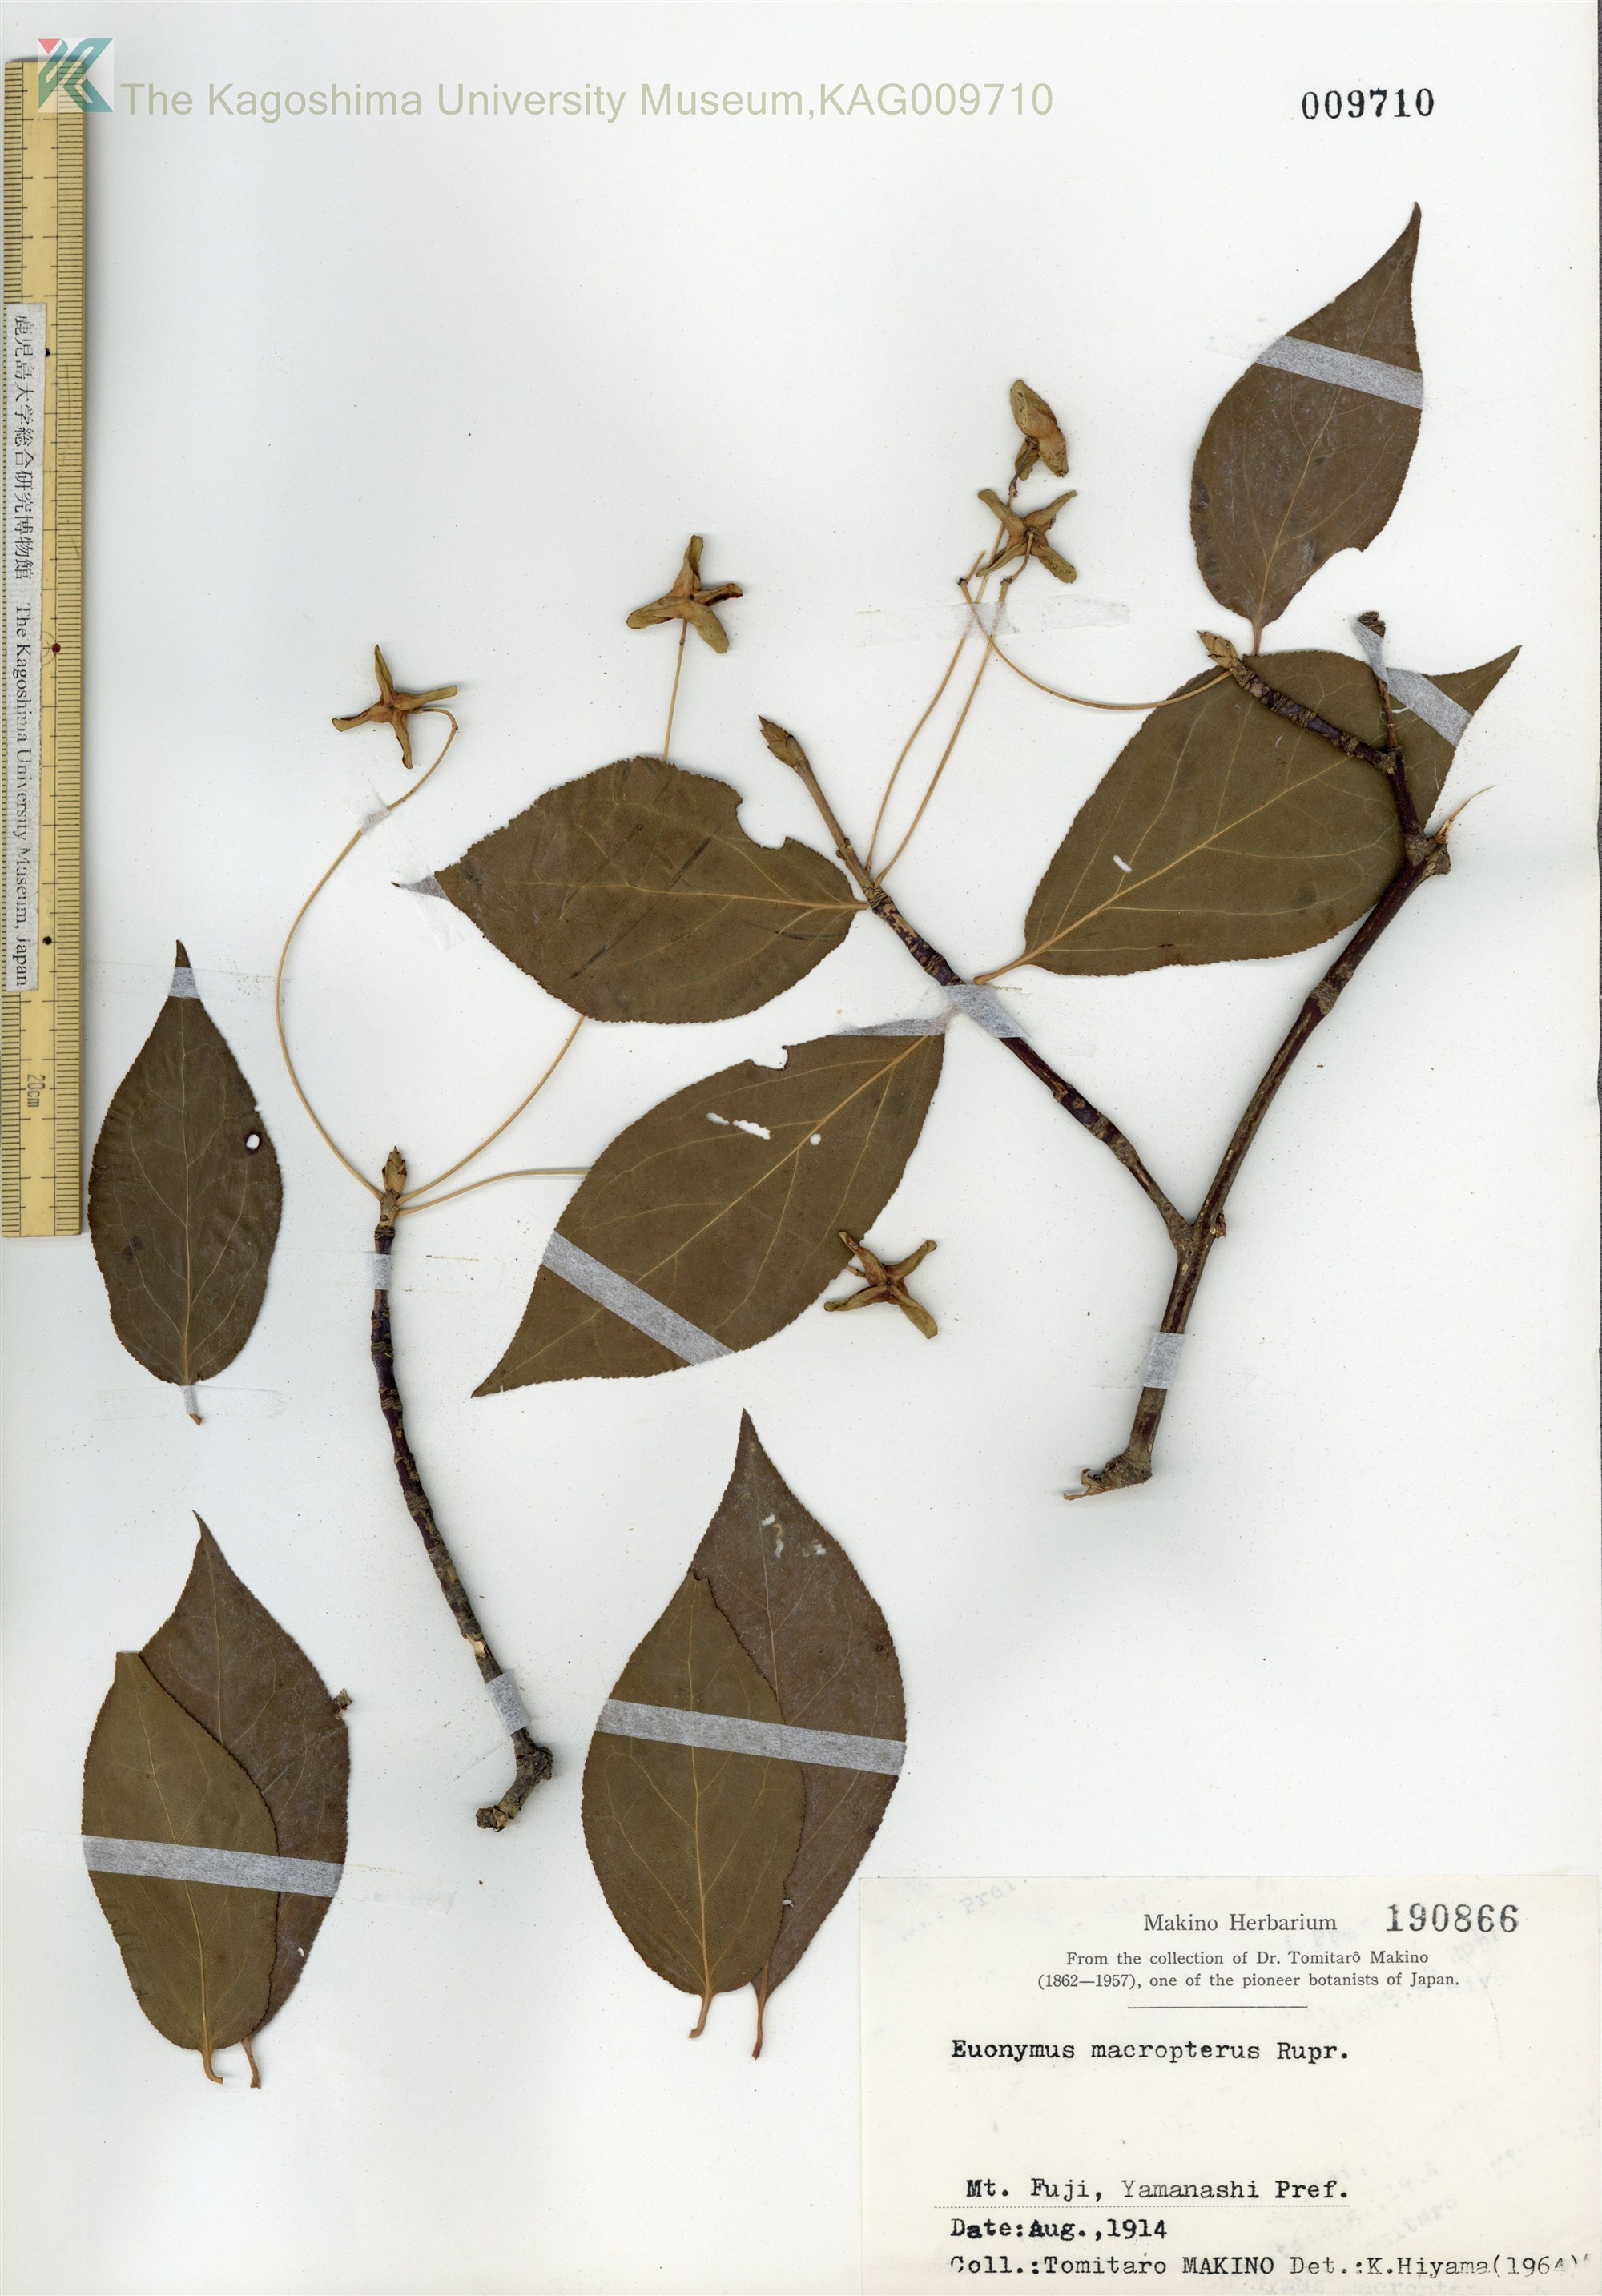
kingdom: Plantae
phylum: Tracheophyta
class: Magnoliopsida
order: Celastrales
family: Celastraceae
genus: Euonymus
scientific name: Euonymus macropterus
